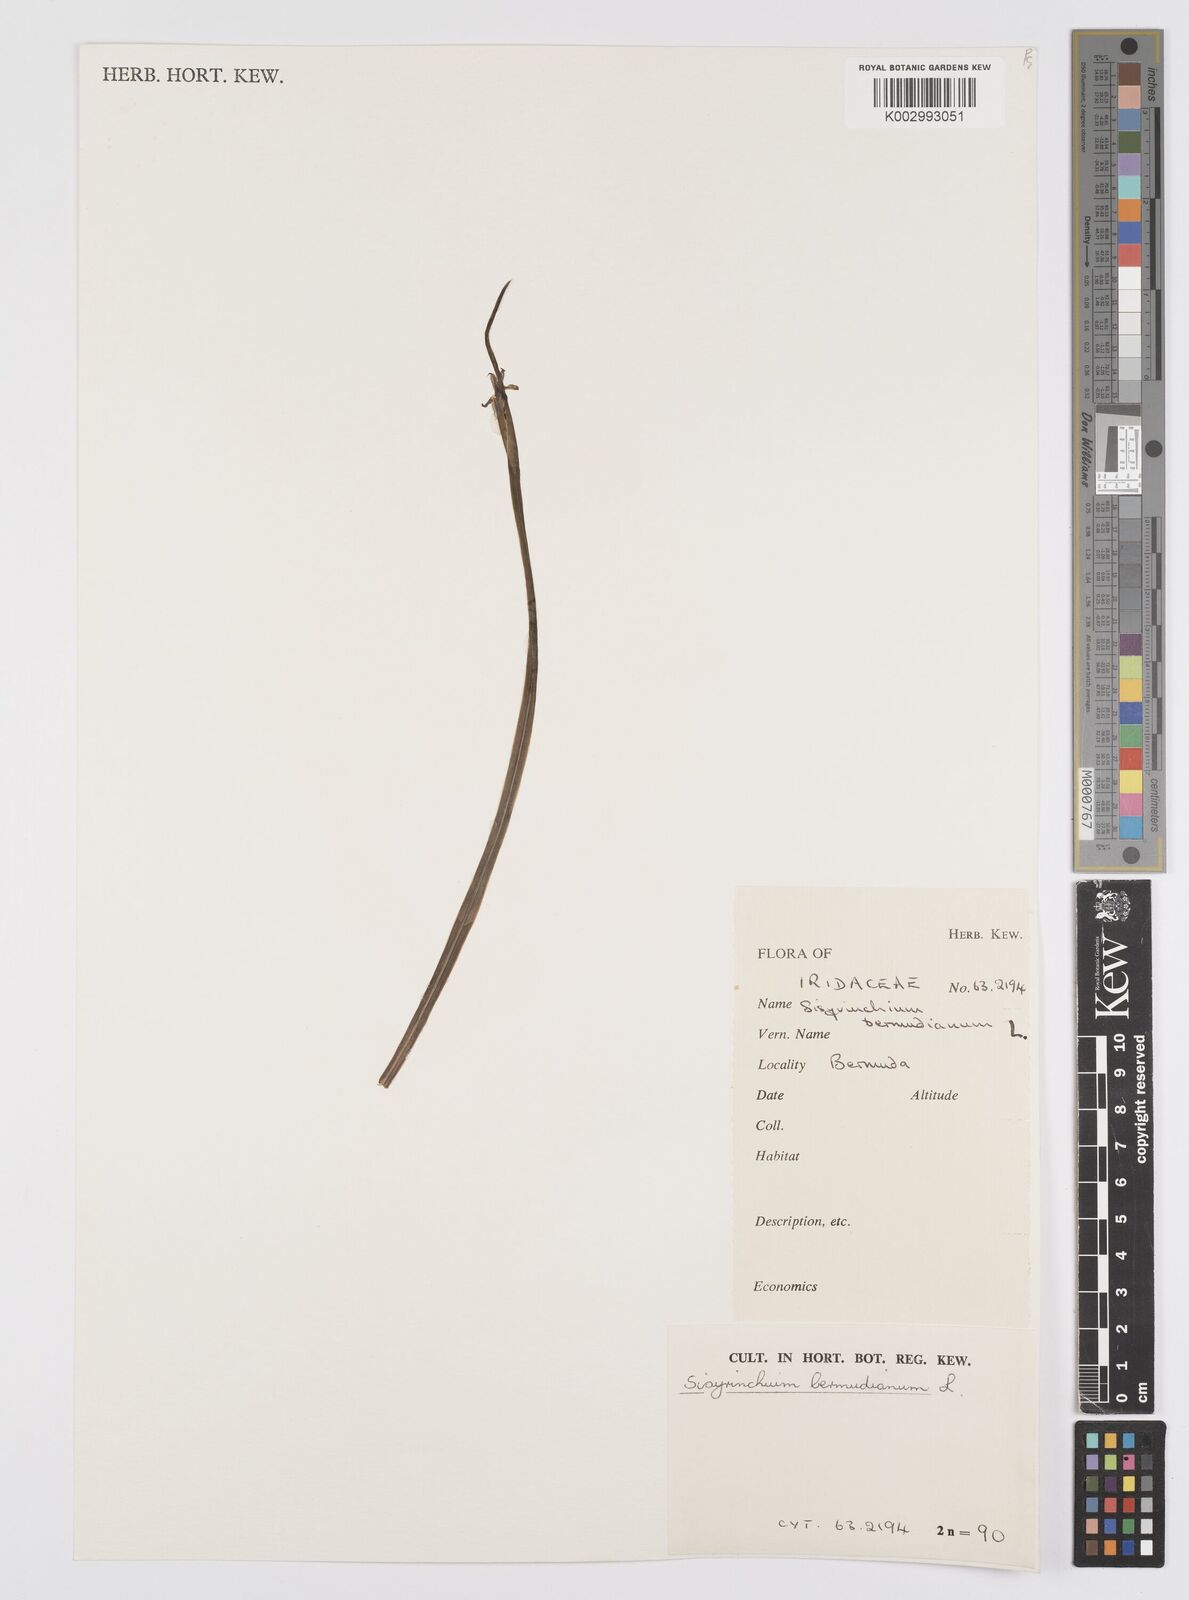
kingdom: Plantae
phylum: Tracheophyta
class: Liliopsida
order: Asparagales
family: Iridaceae
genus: Sisyrinchium
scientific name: Sisyrinchium bermudiana
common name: Blue-eyed-grass
